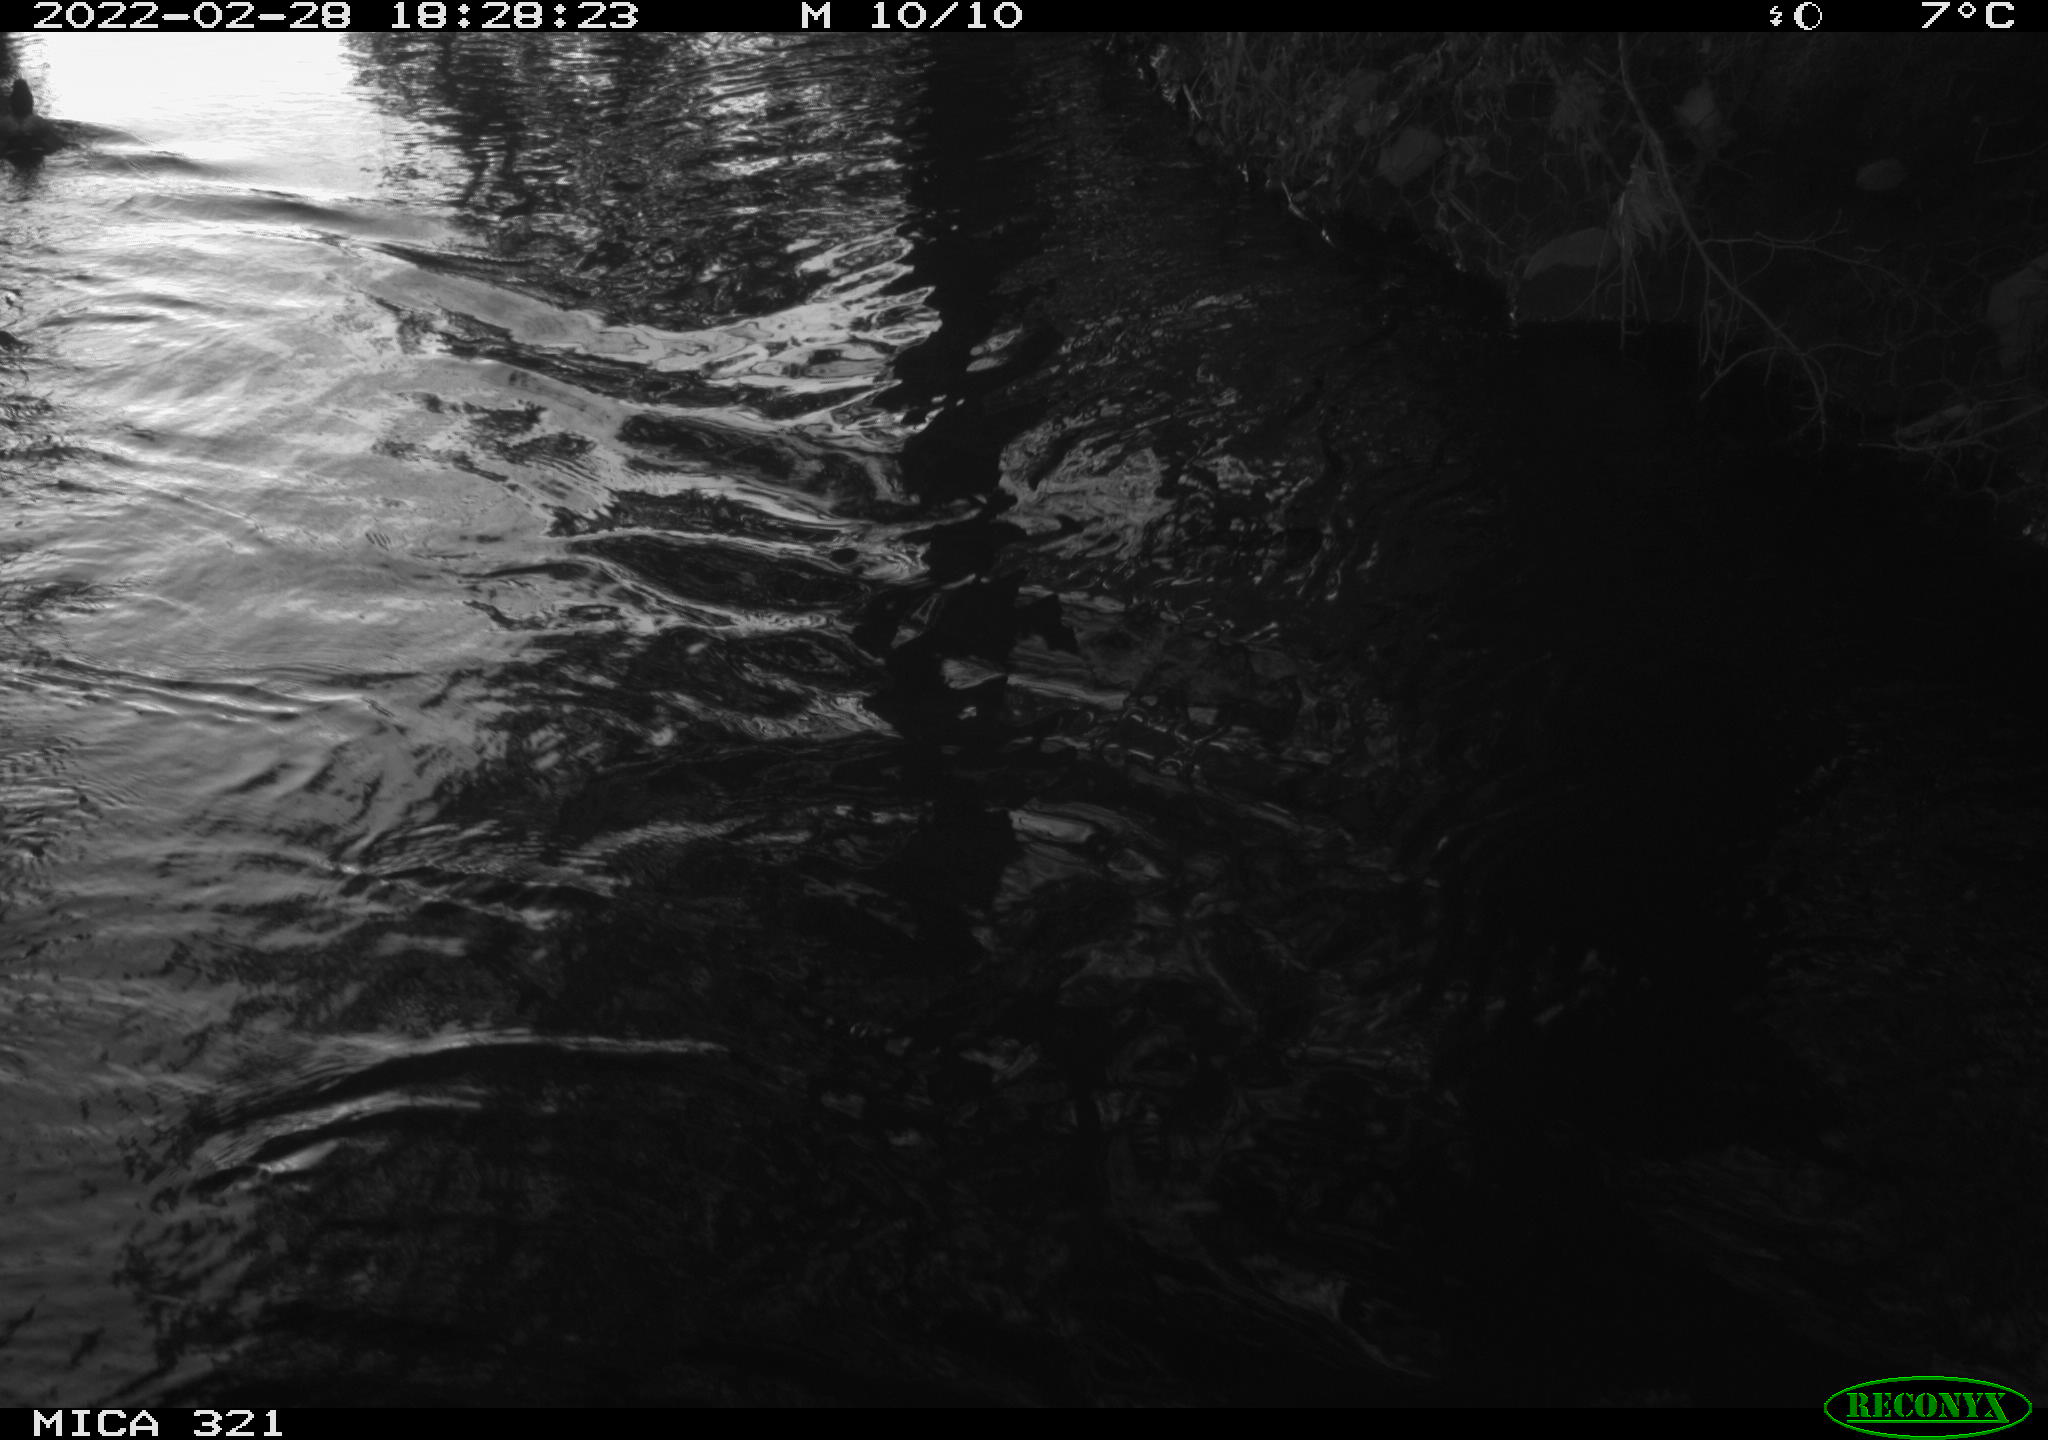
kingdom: Animalia
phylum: Chordata
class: Aves
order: Anseriformes
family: Anatidae
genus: Anas
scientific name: Anas platyrhynchos
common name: Mallard
